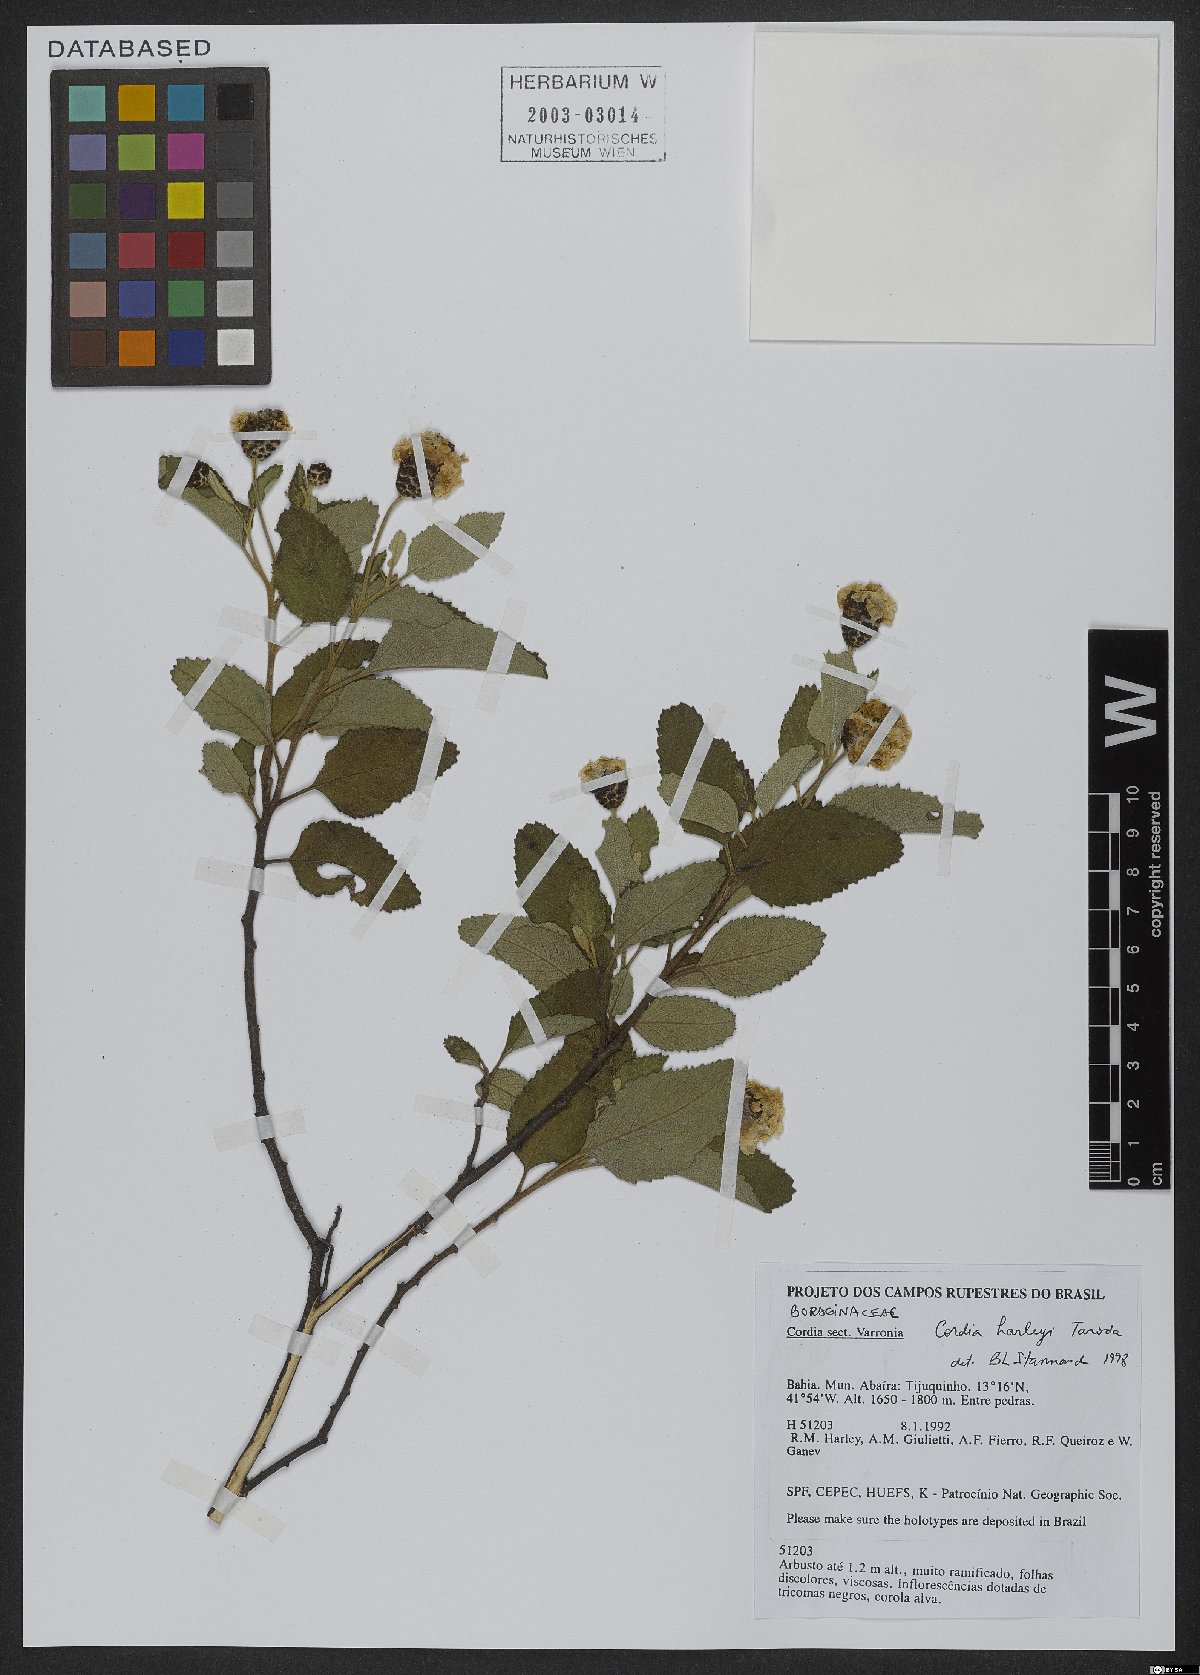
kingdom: Plantae
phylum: Tracheophyta
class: Magnoliopsida
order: Boraginales
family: Cordiaceae
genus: Varronia
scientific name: Varronia harleyi
